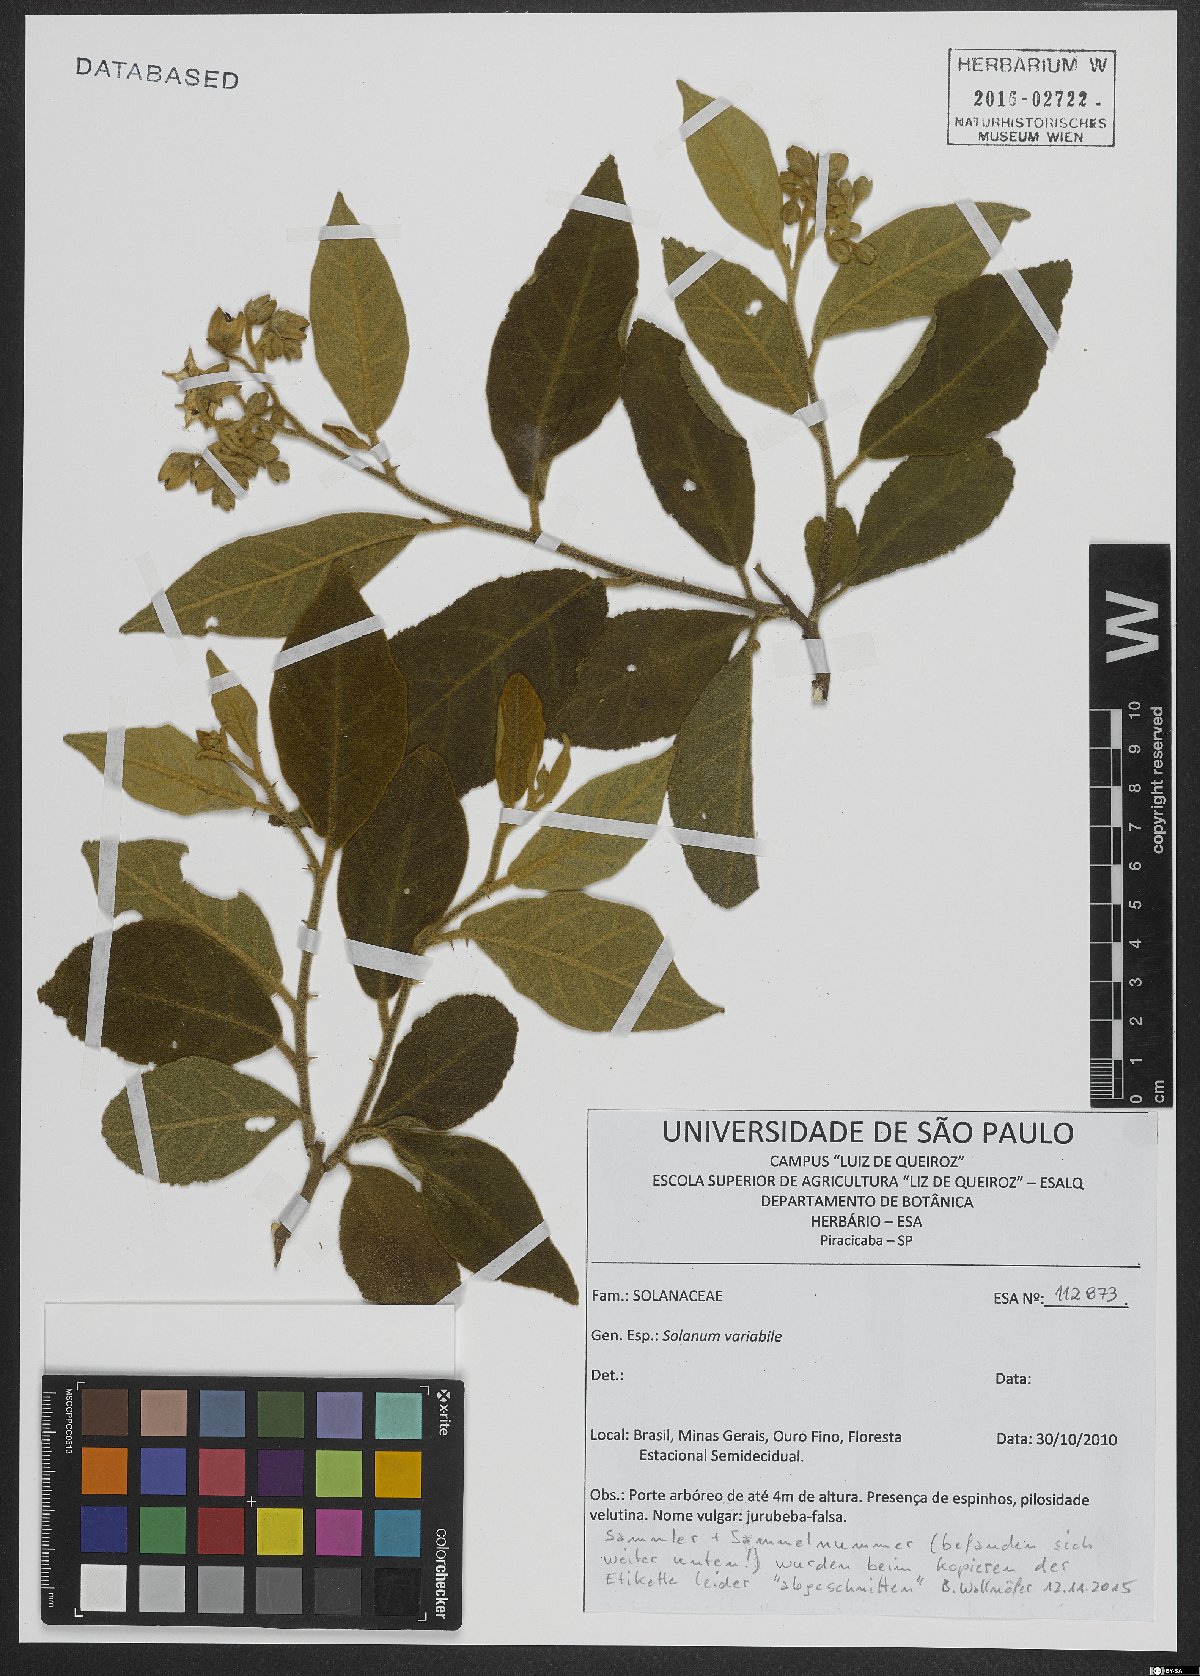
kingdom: Plantae
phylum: Tracheophyta
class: Magnoliopsida
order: Solanales
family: Solanaceae
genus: Solanum
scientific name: Solanum variabile
